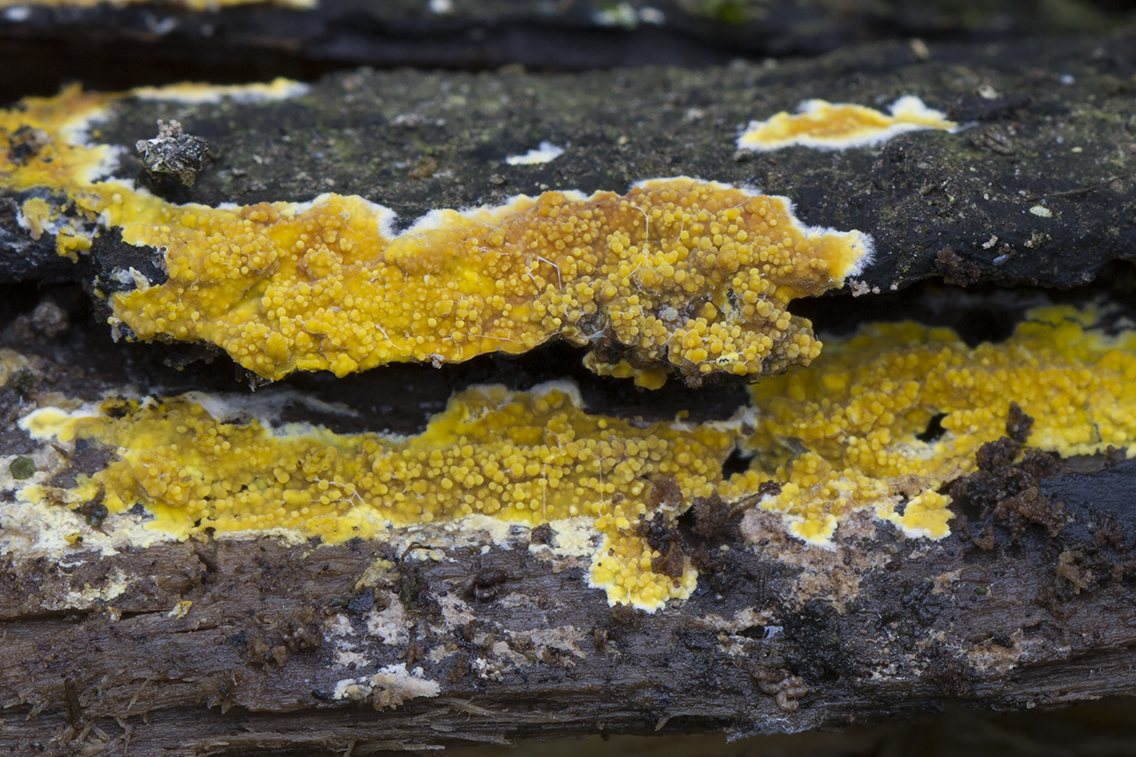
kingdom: Fungi
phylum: Basidiomycota
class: Agaricomycetes
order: Polyporales
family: Meruliaceae
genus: Phlebiodontia
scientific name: Phlebiodontia subochracea
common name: svovl-åresvamp
